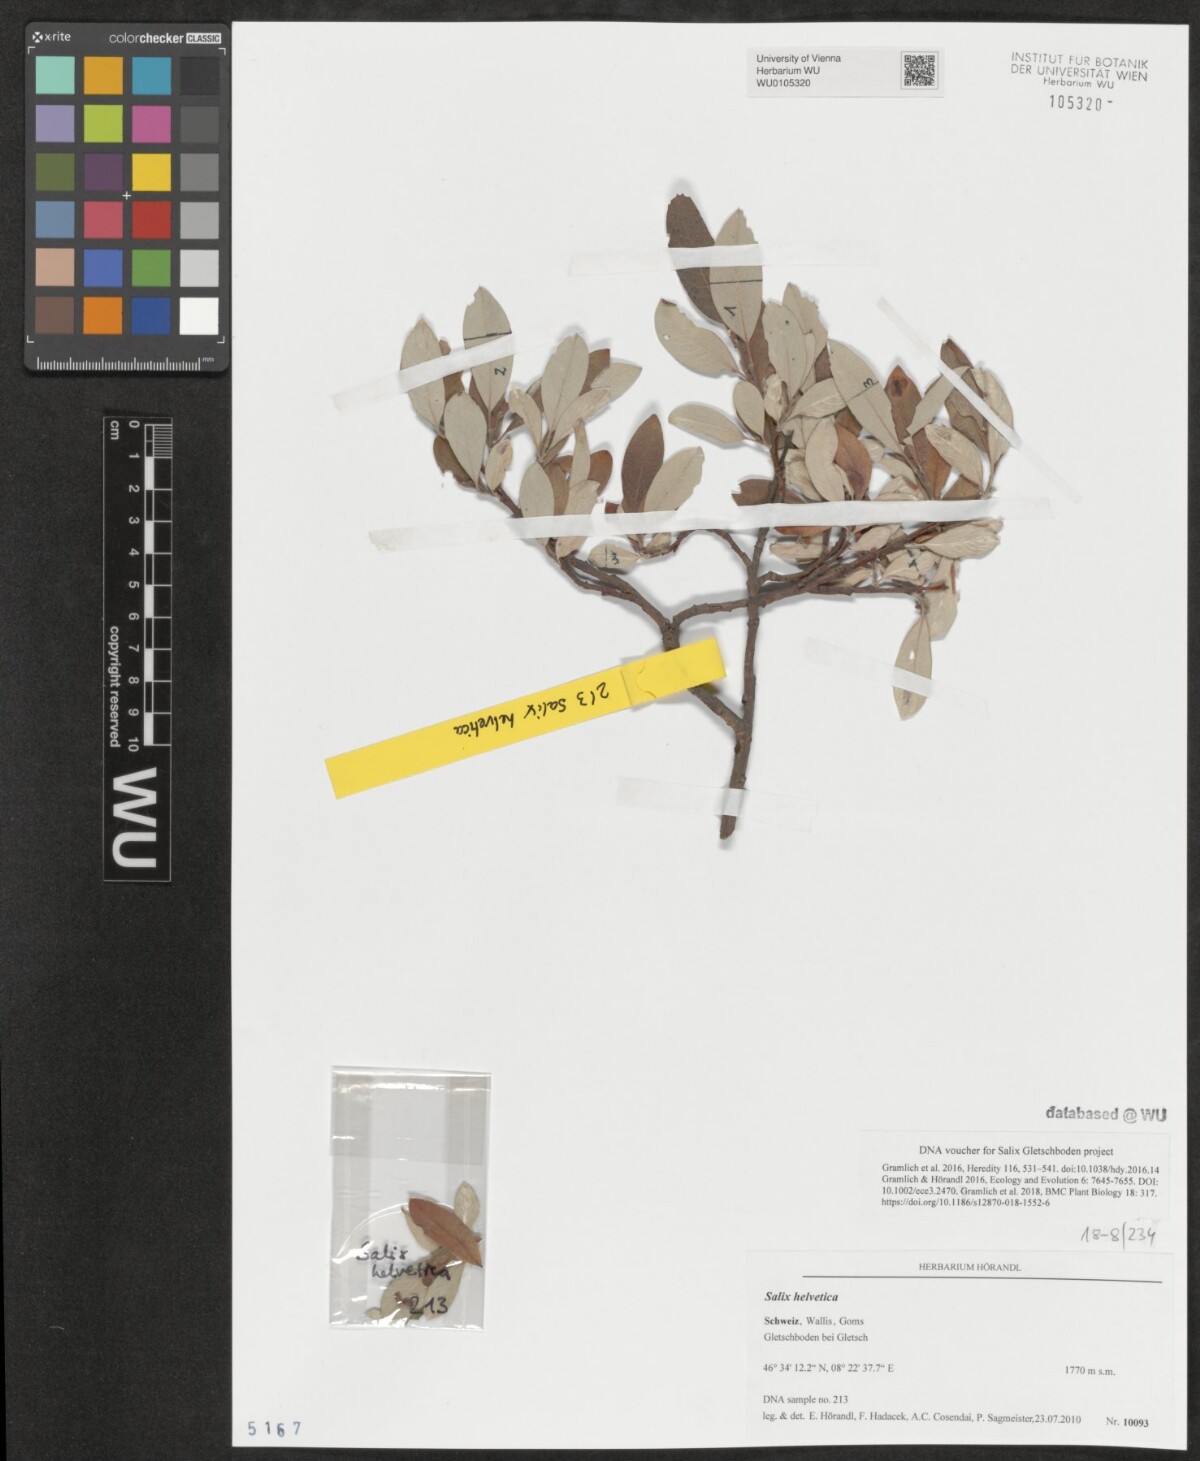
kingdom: Plantae
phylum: Tracheophyta
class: Magnoliopsida
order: Malpighiales
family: Salicaceae
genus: Salix
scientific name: Salix helvetica
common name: Swiss willow
